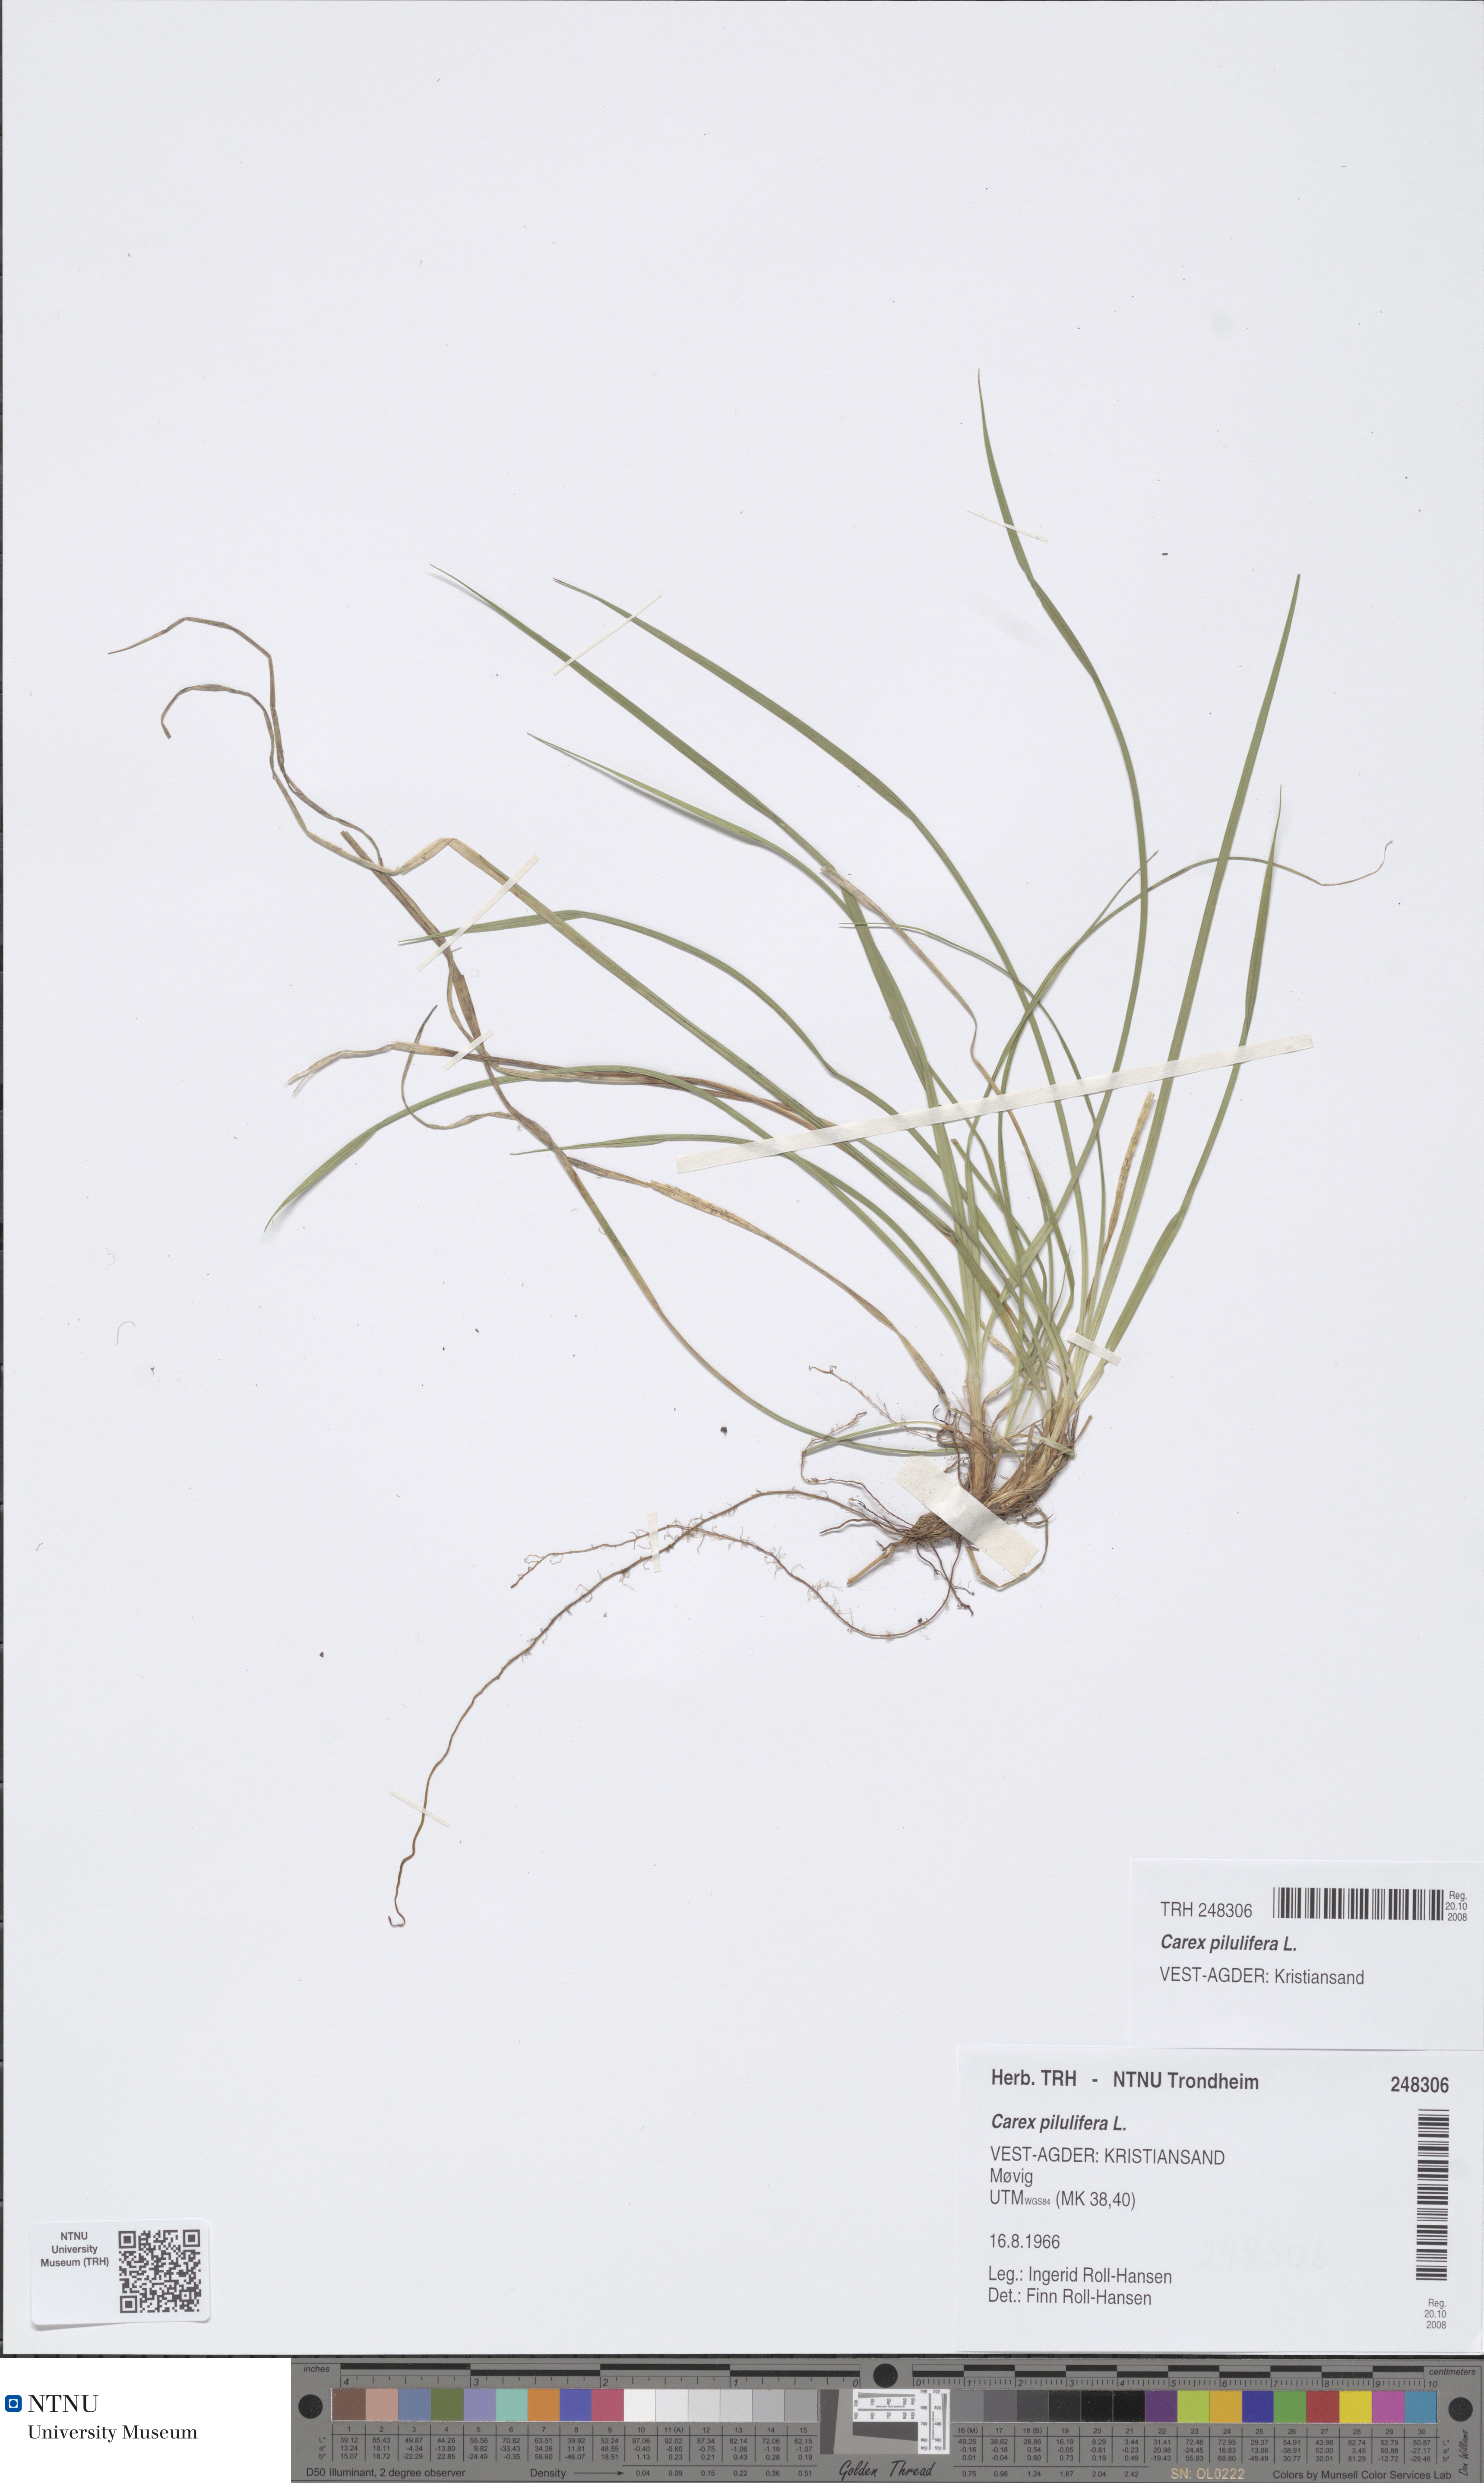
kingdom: Plantae
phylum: Tracheophyta
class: Liliopsida
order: Poales
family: Cyperaceae
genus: Carex
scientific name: Carex pilulifera
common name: Pill sedge
